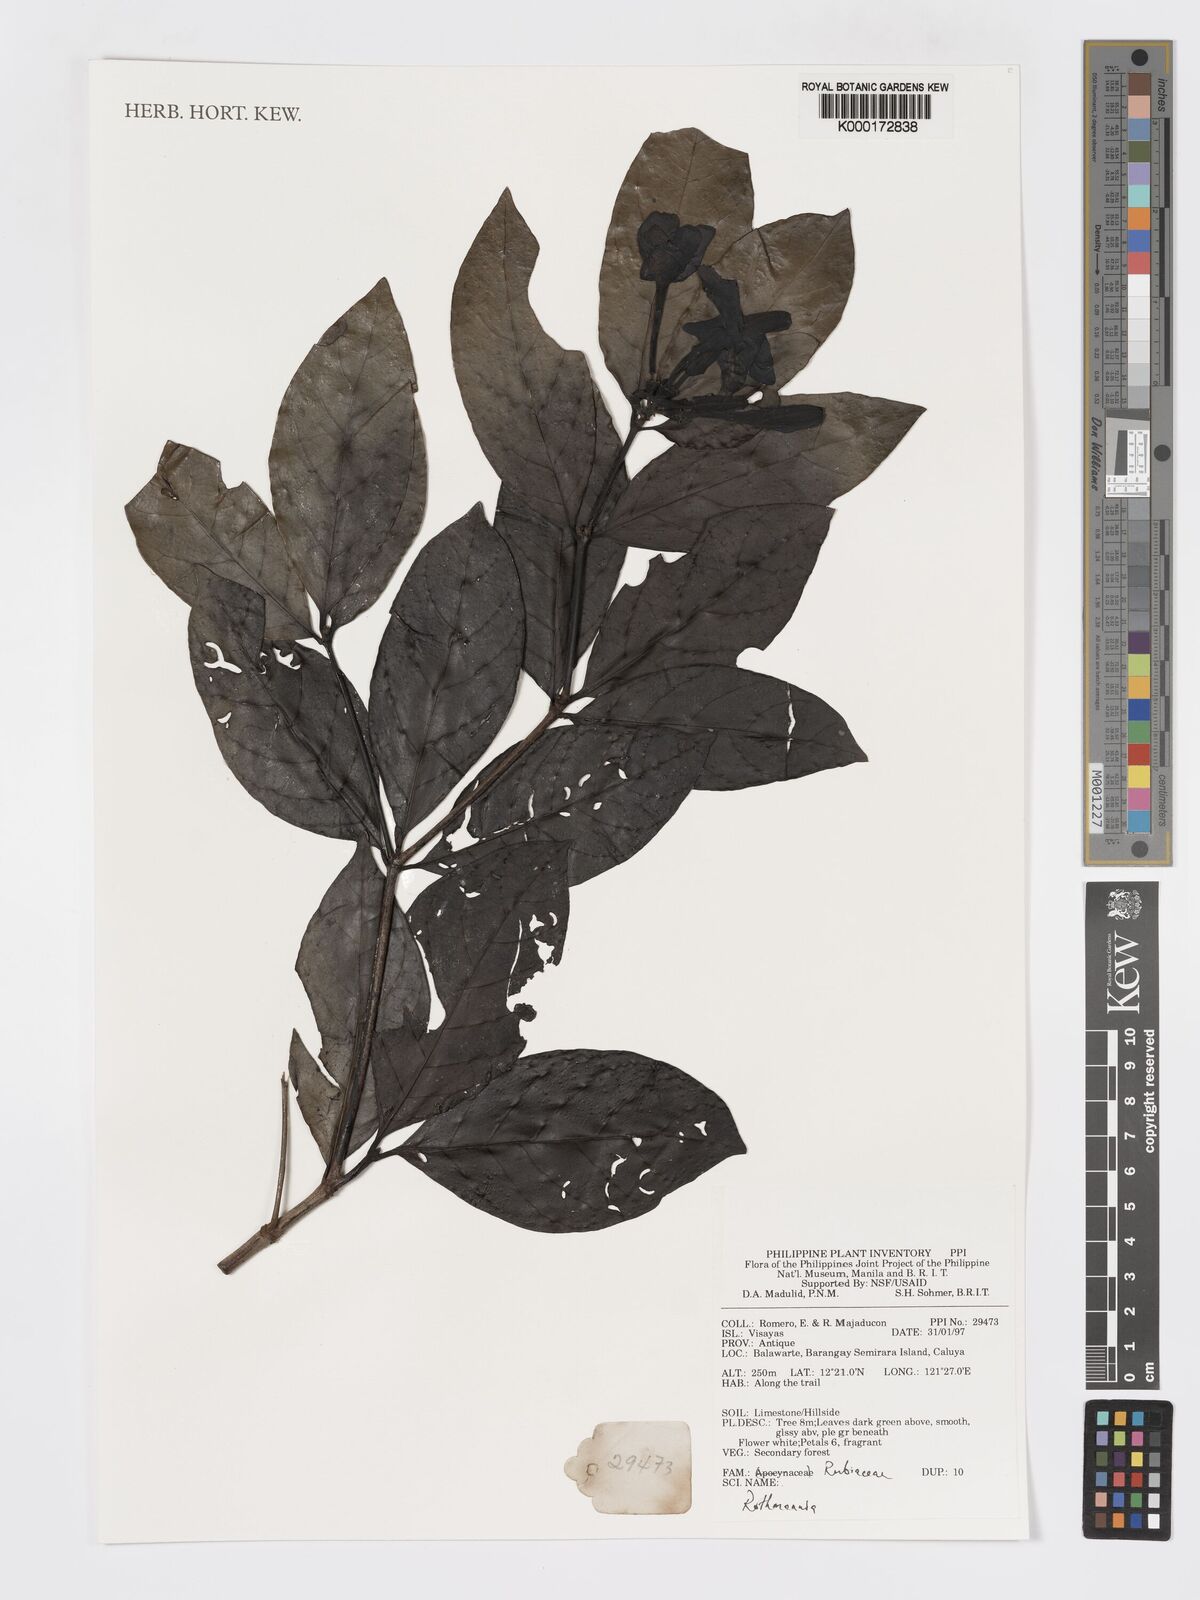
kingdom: Plantae
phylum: Tracheophyta
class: Magnoliopsida
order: Gentianales
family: Rubiaceae
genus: Ridsdalea
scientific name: Ridsdalea
